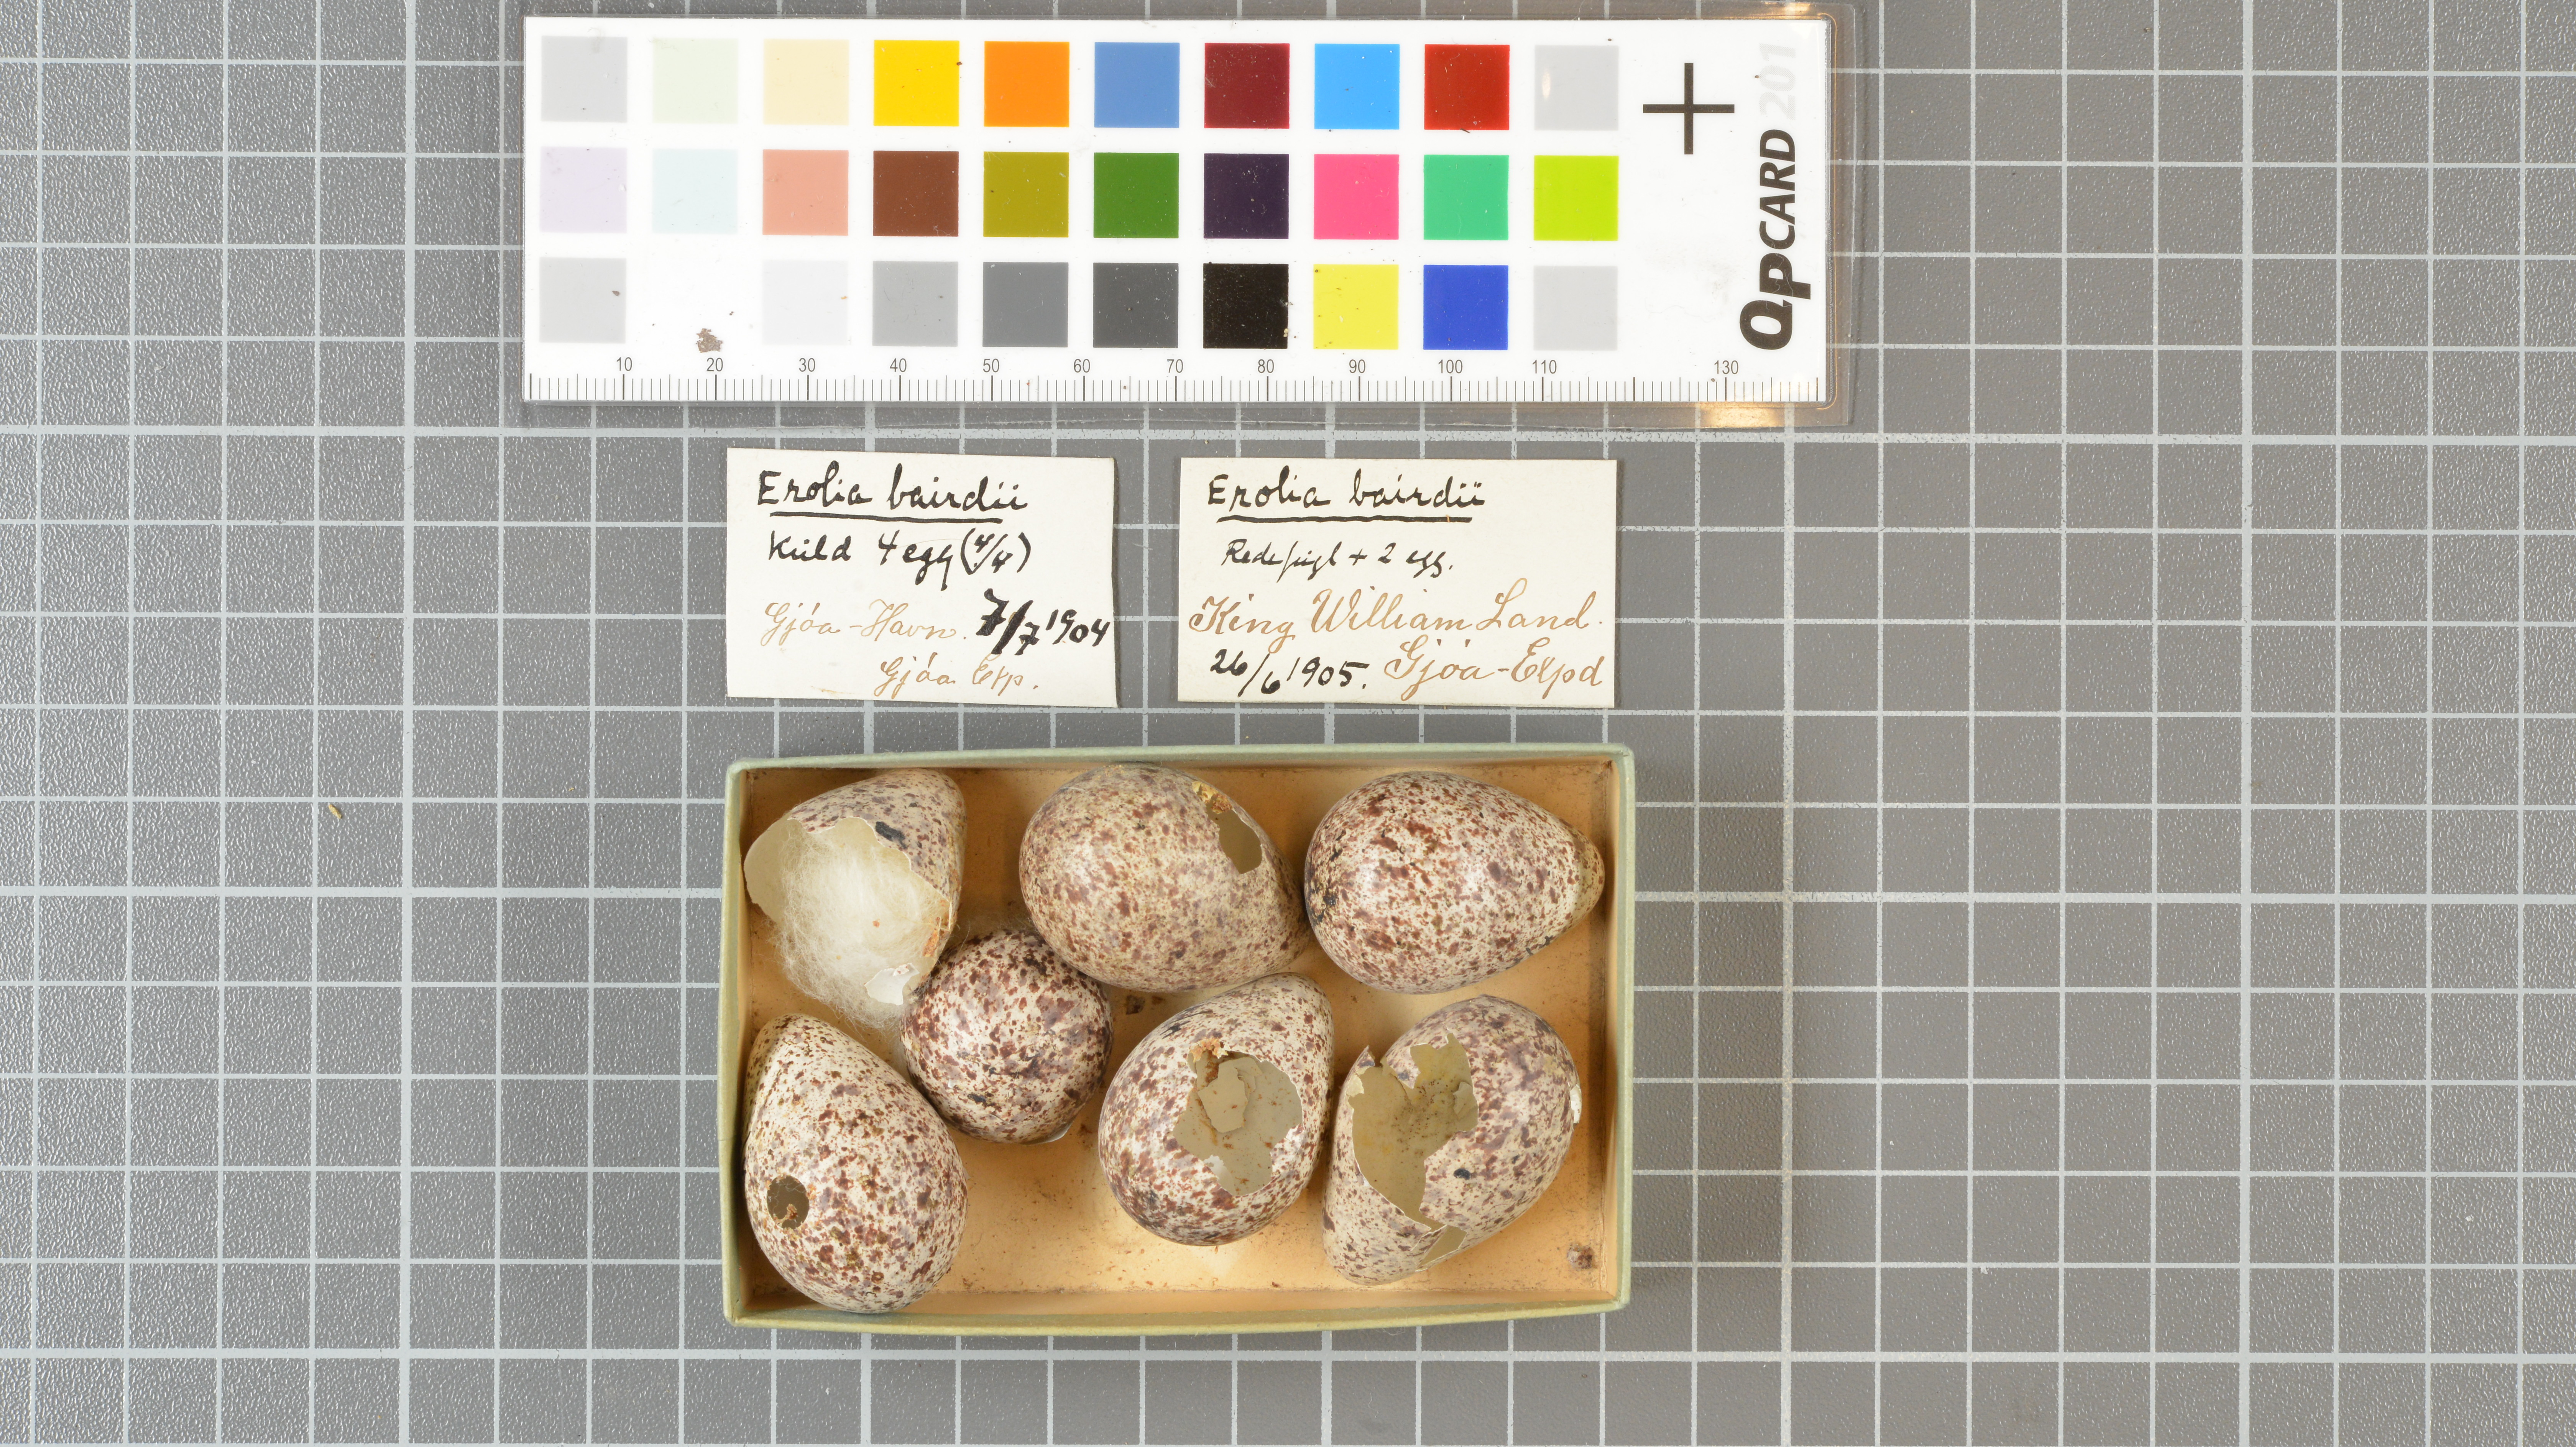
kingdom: Animalia
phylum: Chordata
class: Aves
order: Charadriiformes
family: Scolopacidae
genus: Calidris
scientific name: Calidris bairdii
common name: Baird's sandpiper
